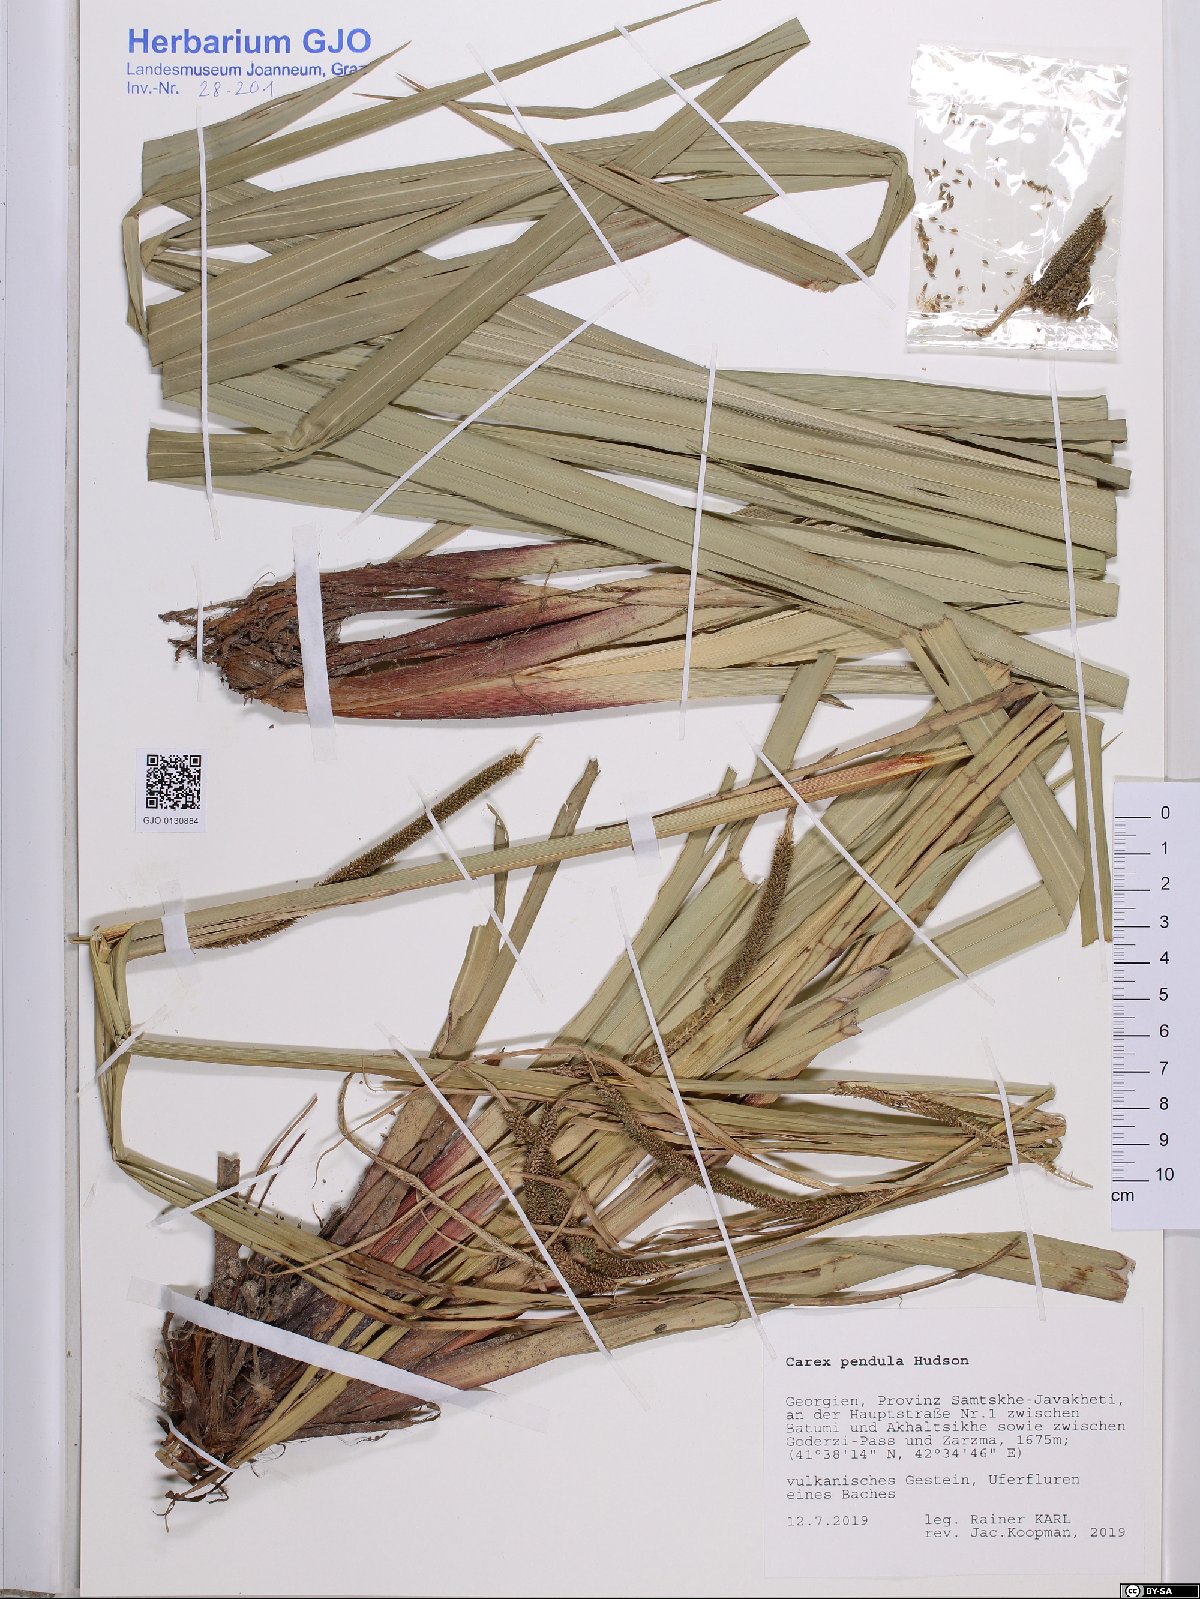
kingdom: Plantae
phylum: Tracheophyta
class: Liliopsida
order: Poales
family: Cyperaceae
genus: Carex
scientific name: Carex pendula
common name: Pendulous sedge
